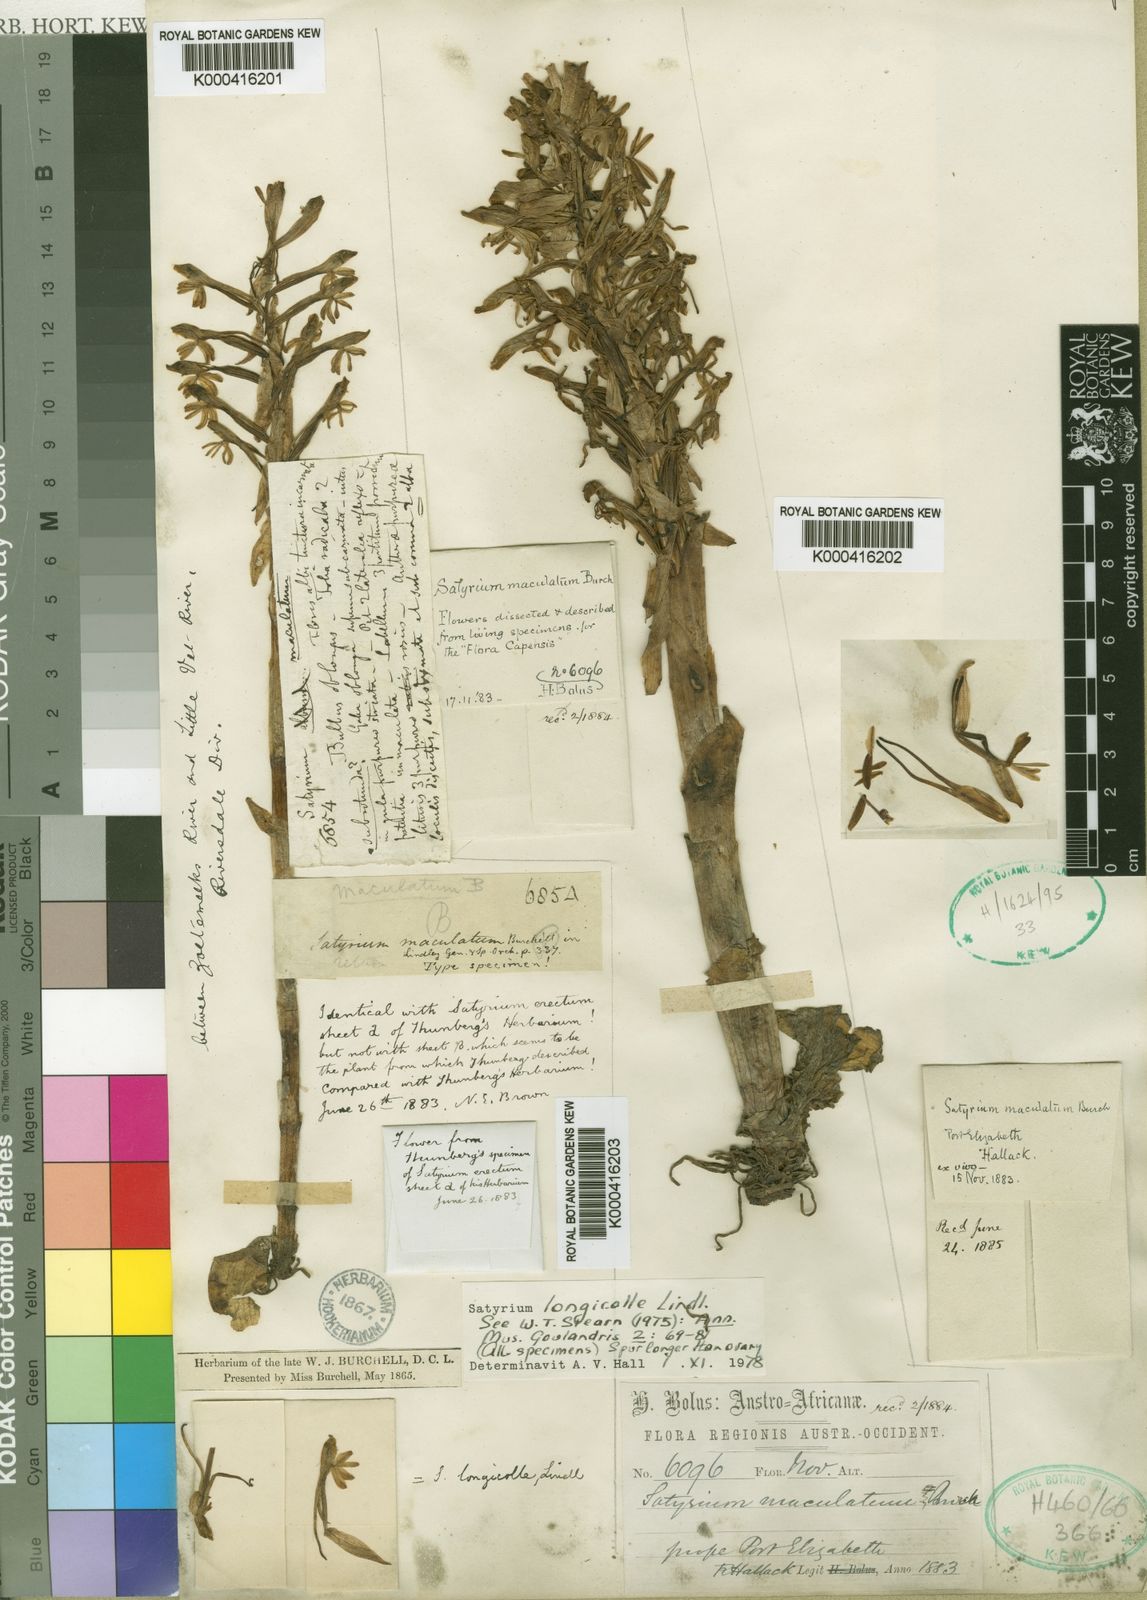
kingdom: Plantae
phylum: Tracheophyta
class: Liliopsida
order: Asparagales
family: Orchidaceae
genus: Satyrium
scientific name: Satyrium longicolle
